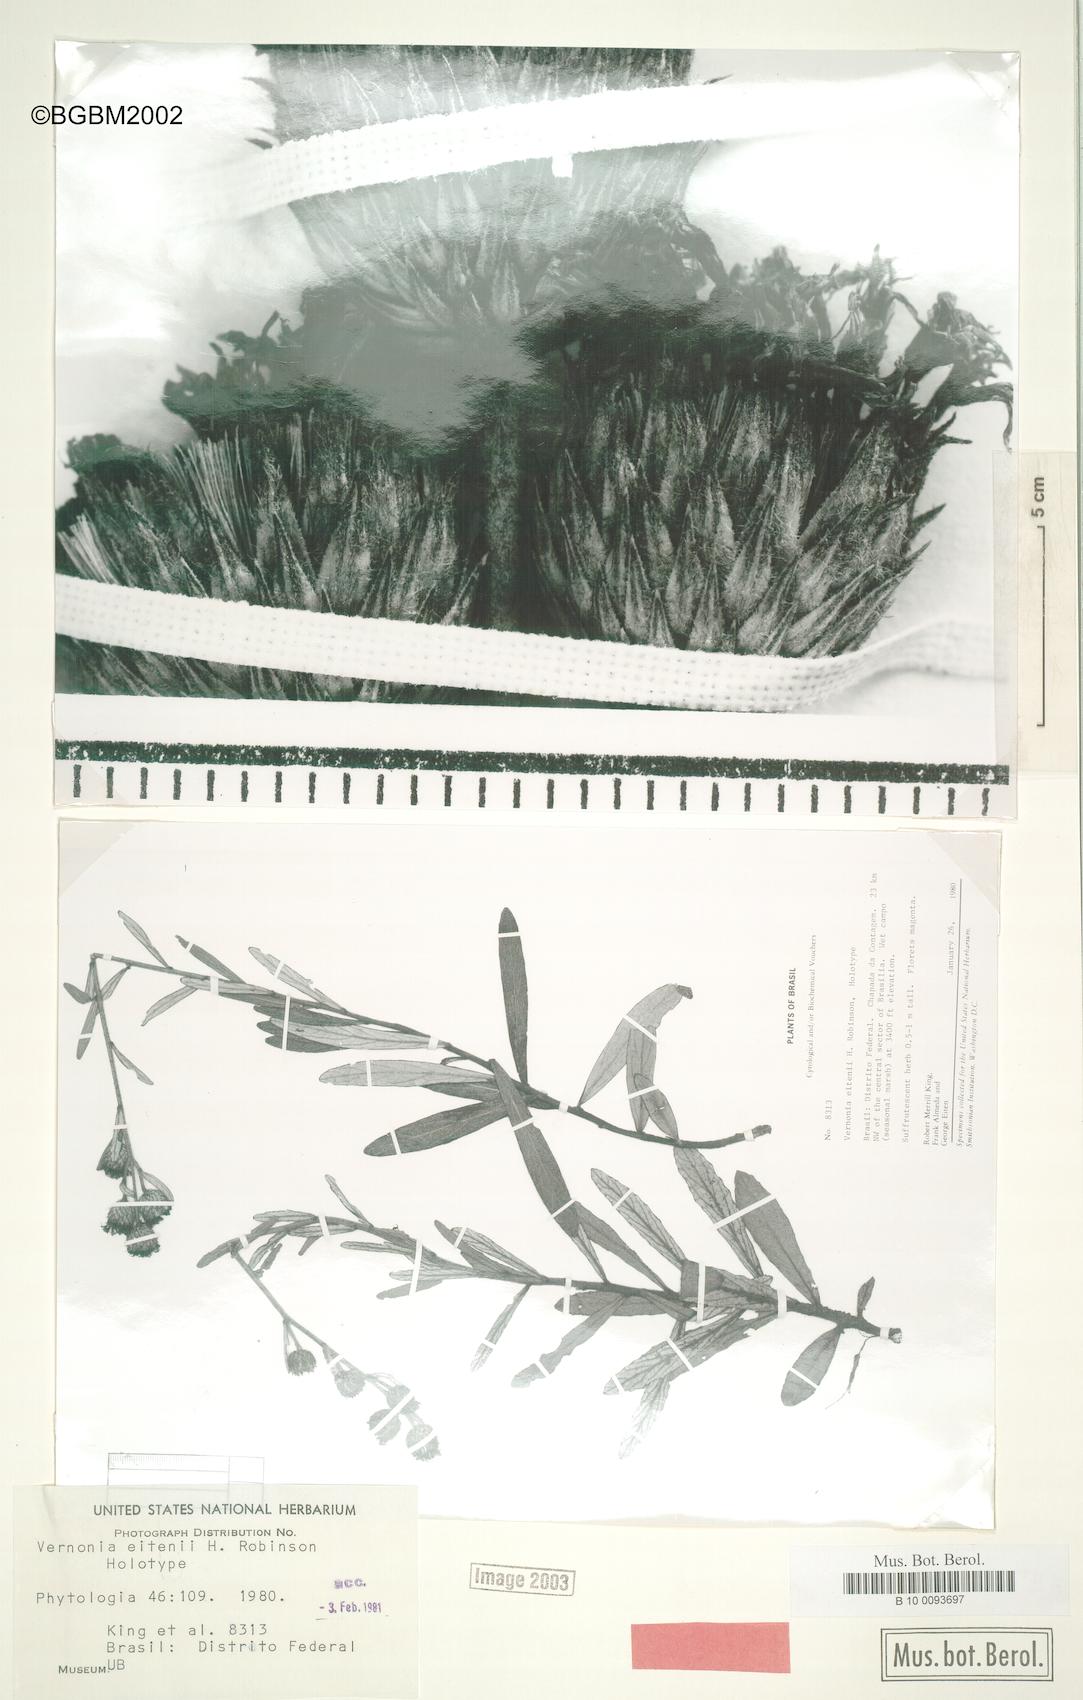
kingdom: Plantae
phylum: Tracheophyta
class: Magnoliopsida
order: Asterales
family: Asteraceae
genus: Lessingianthus
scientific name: Lessingianthus eitenii
